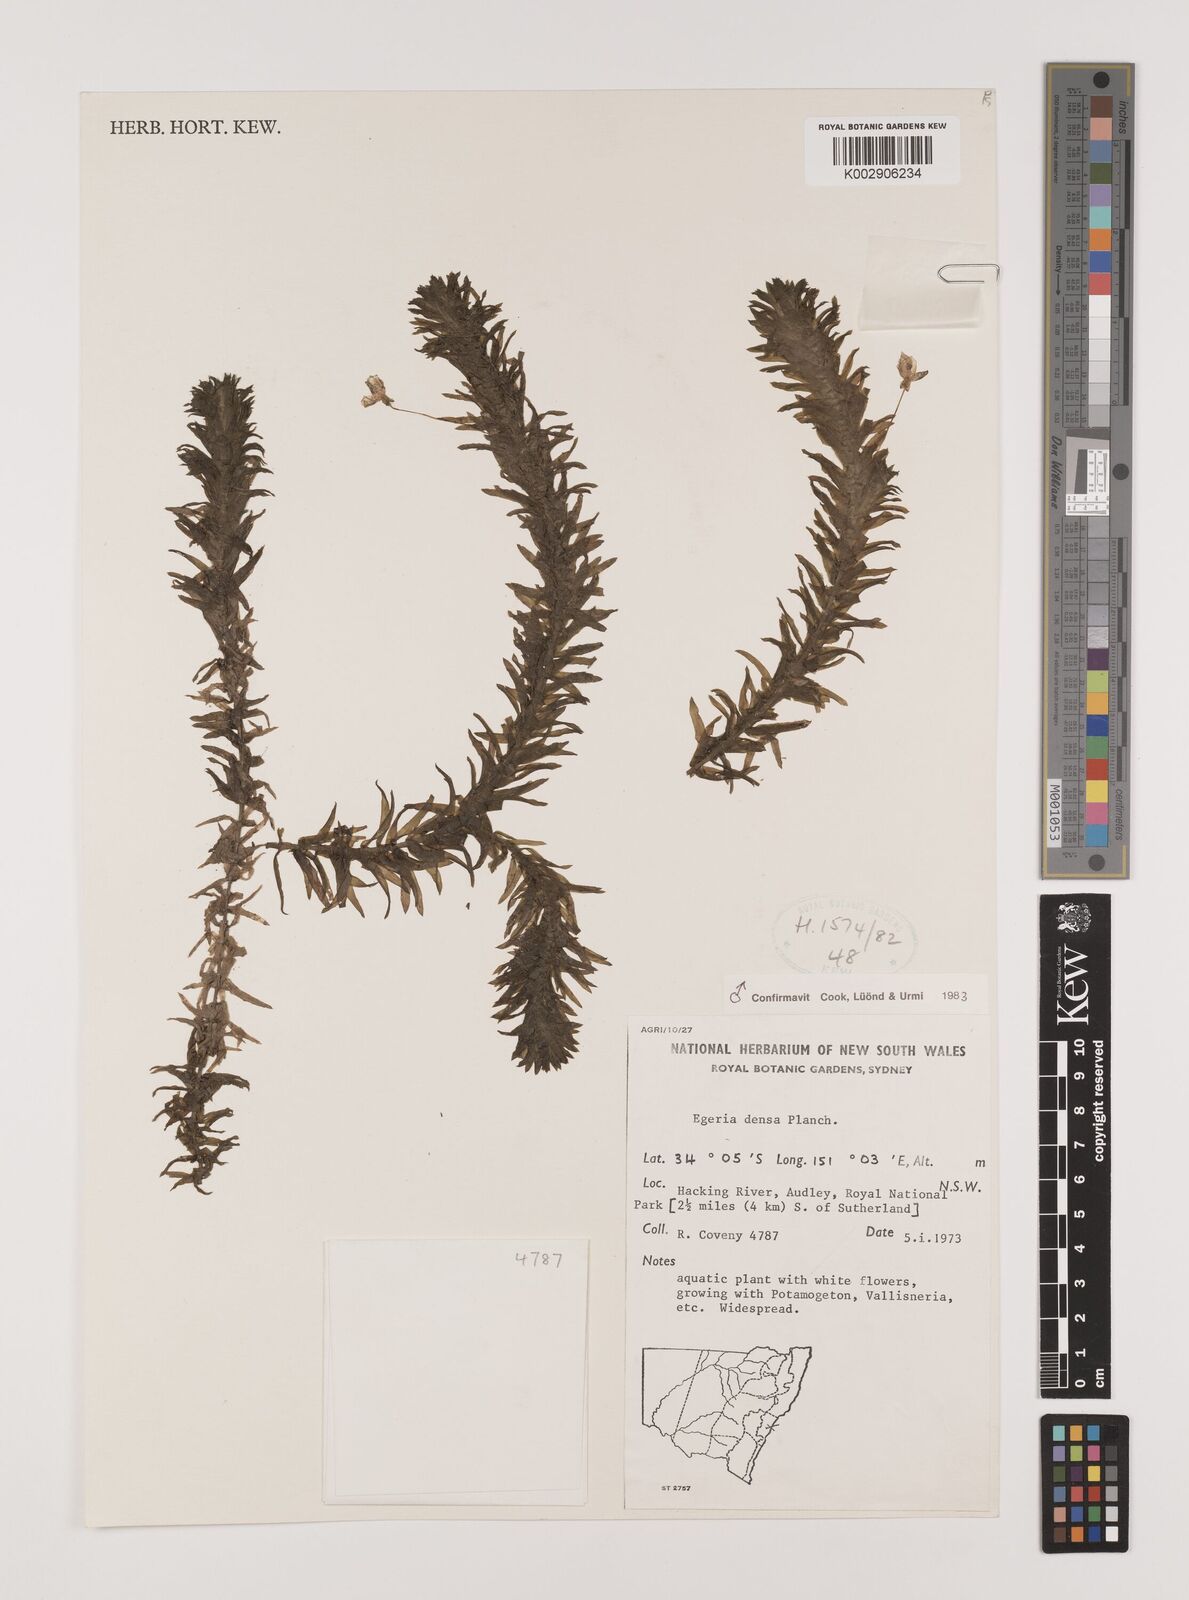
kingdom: Plantae
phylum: Tracheophyta
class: Liliopsida
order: Alismatales
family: Hydrocharitaceae
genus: Elodea
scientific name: Elodea densa
